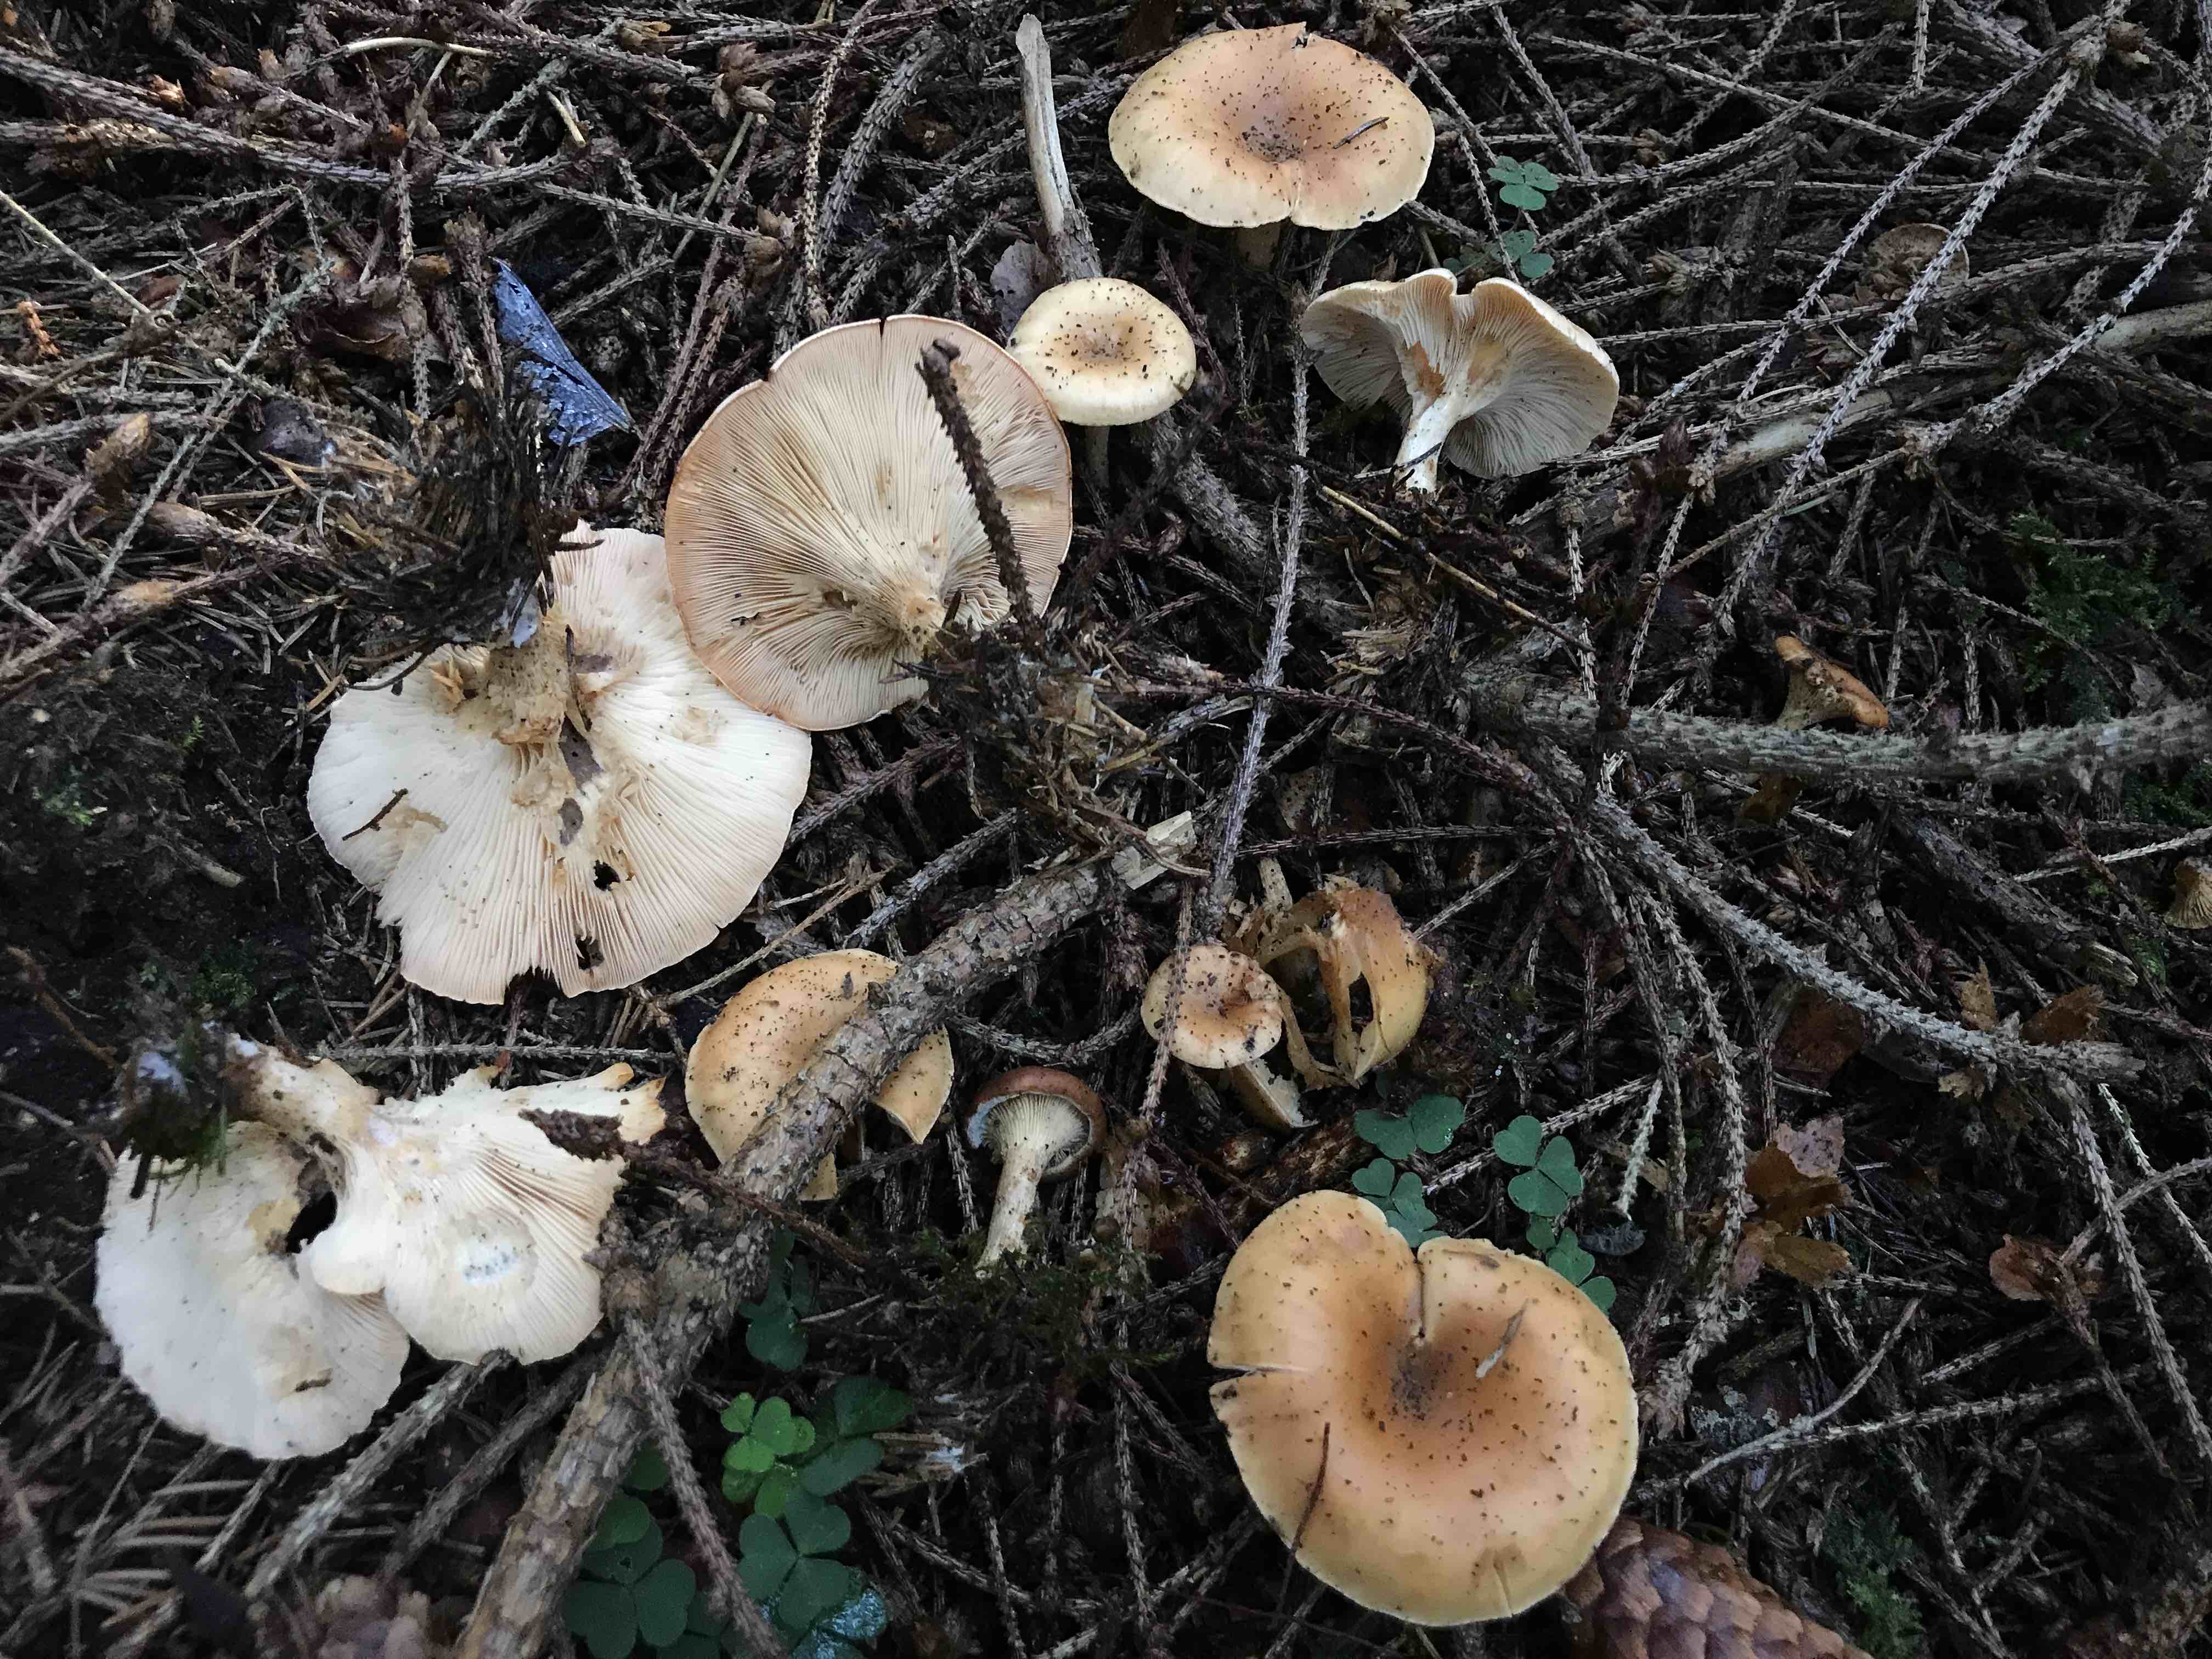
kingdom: Fungi
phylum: Basidiomycota
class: Agaricomycetes
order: Agaricales
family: Tricholomataceae
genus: Paralepista
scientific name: Paralepista flaccida
